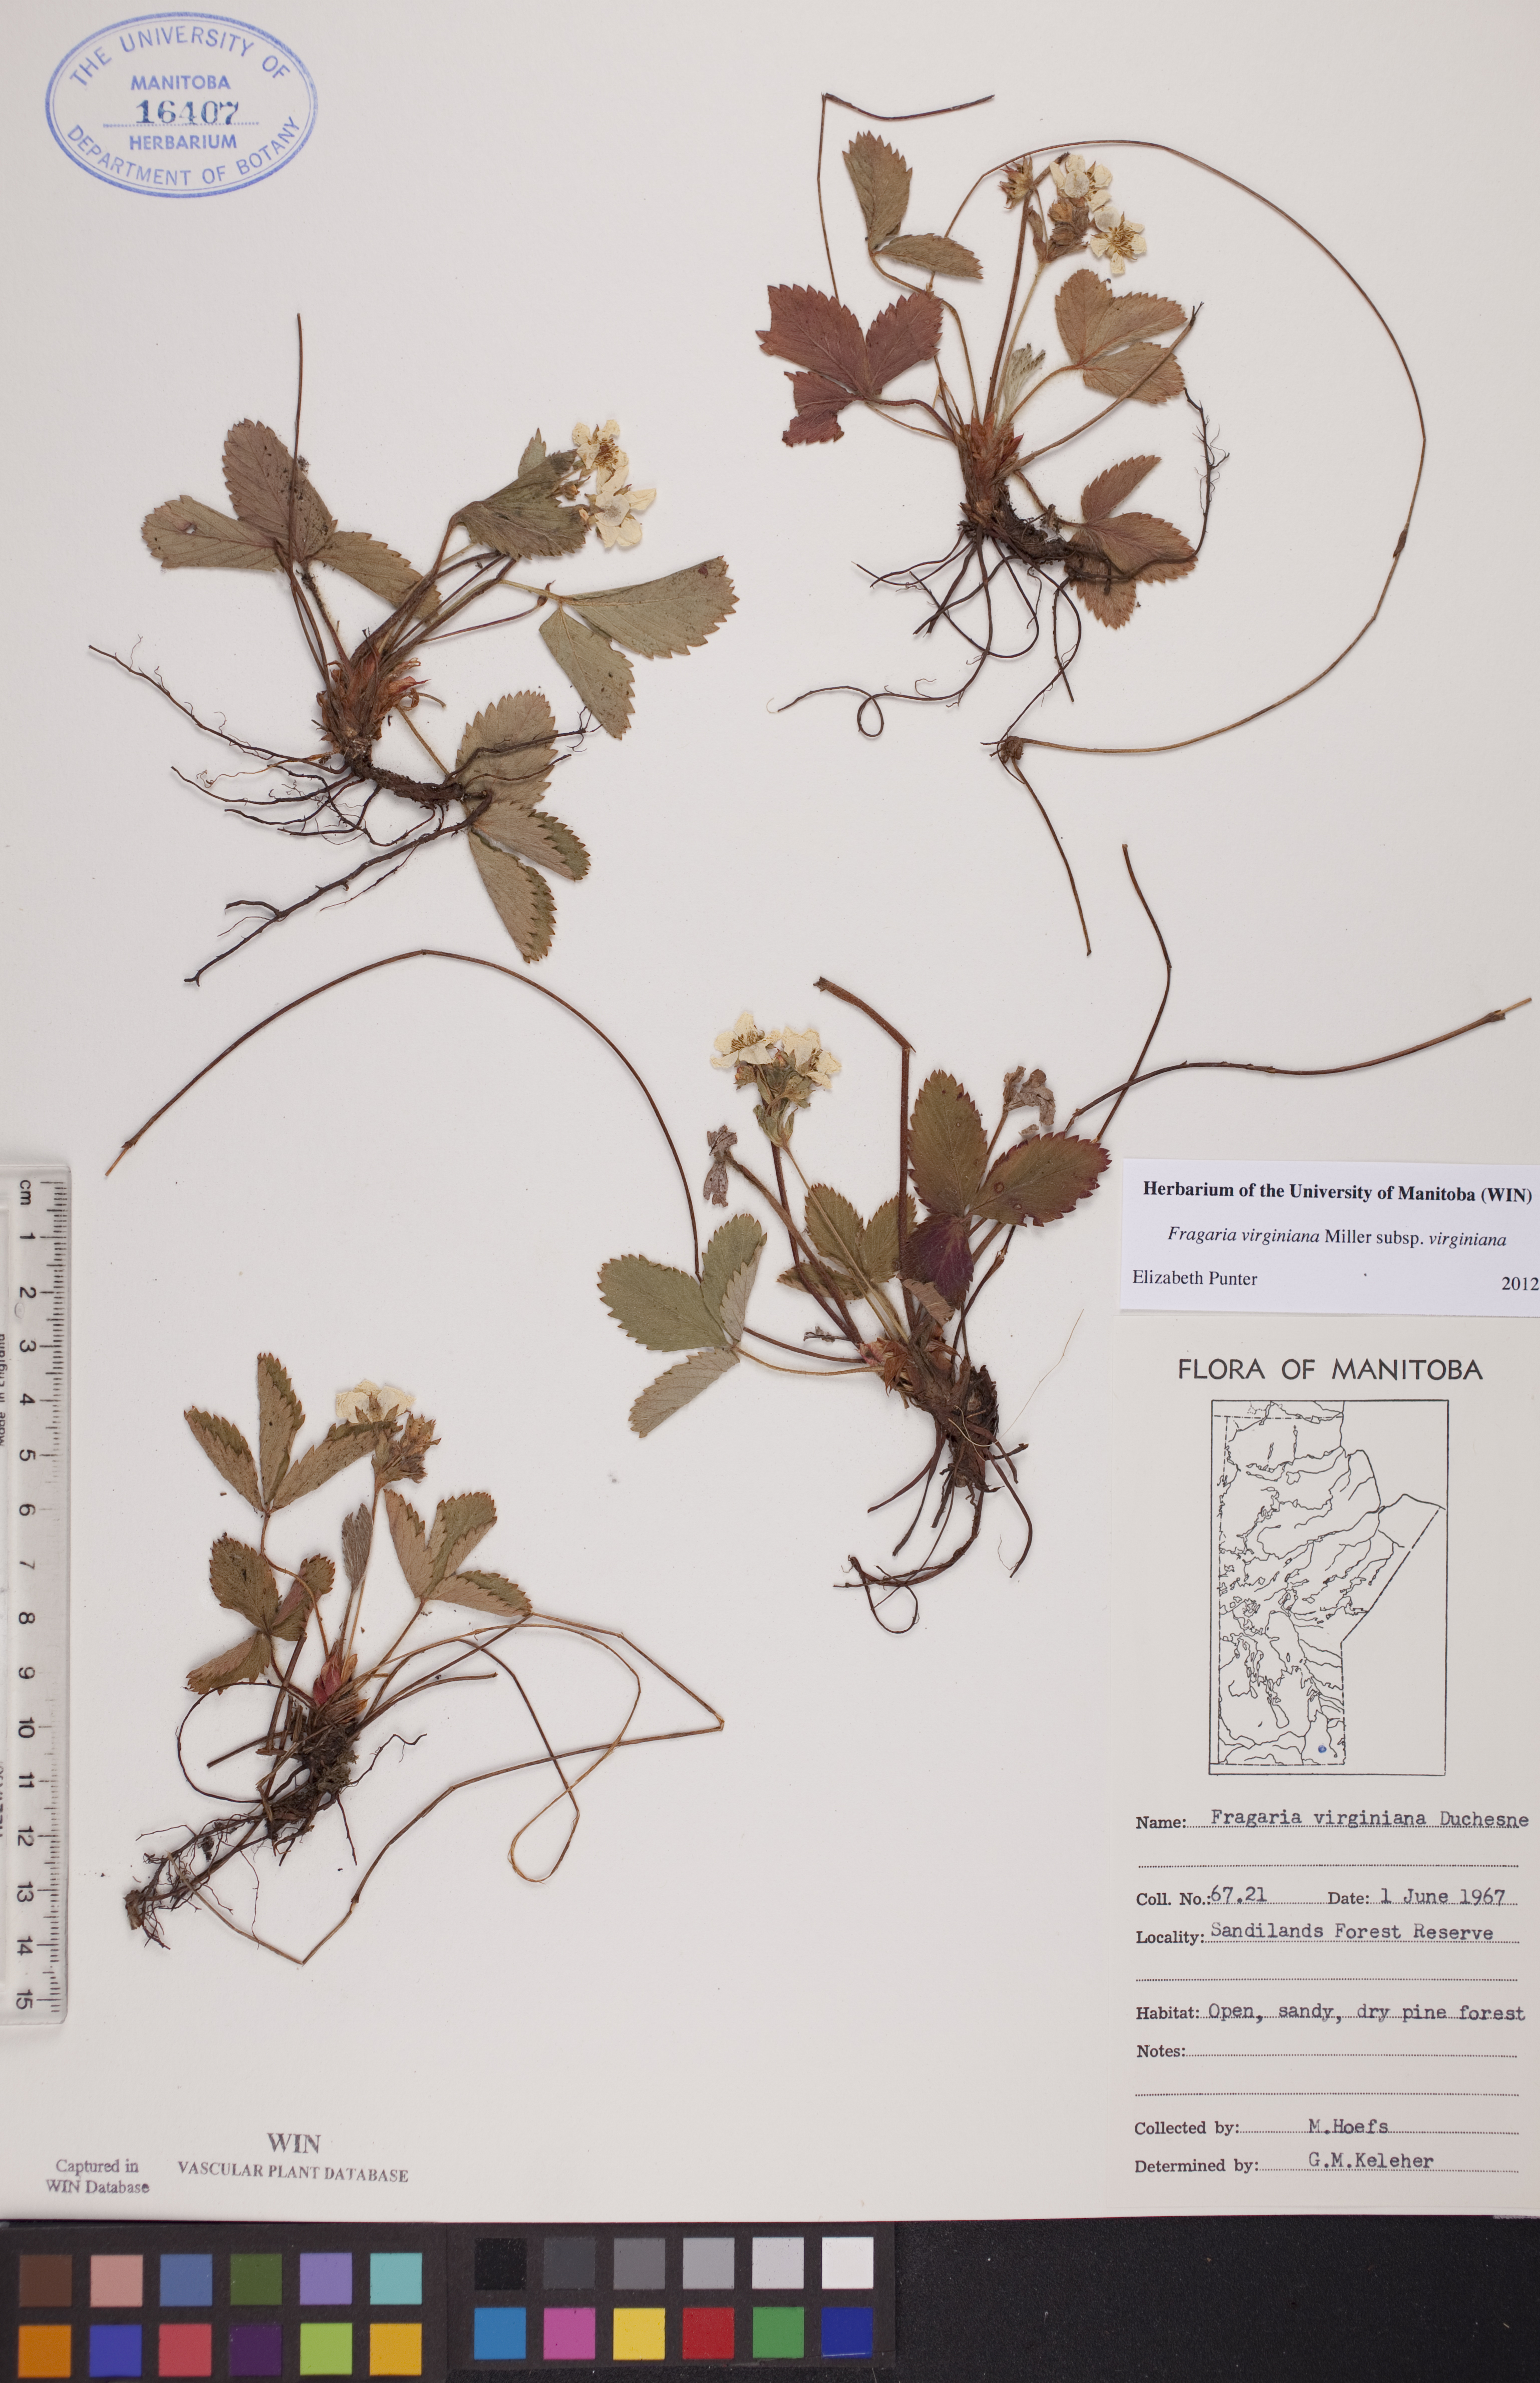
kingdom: Plantae
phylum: Tracheophyta
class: Magnoliopsida
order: Rosales
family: Rosaceae
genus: Fragaria
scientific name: Fragaria virginiana
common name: Thickleaved wild strawberry
